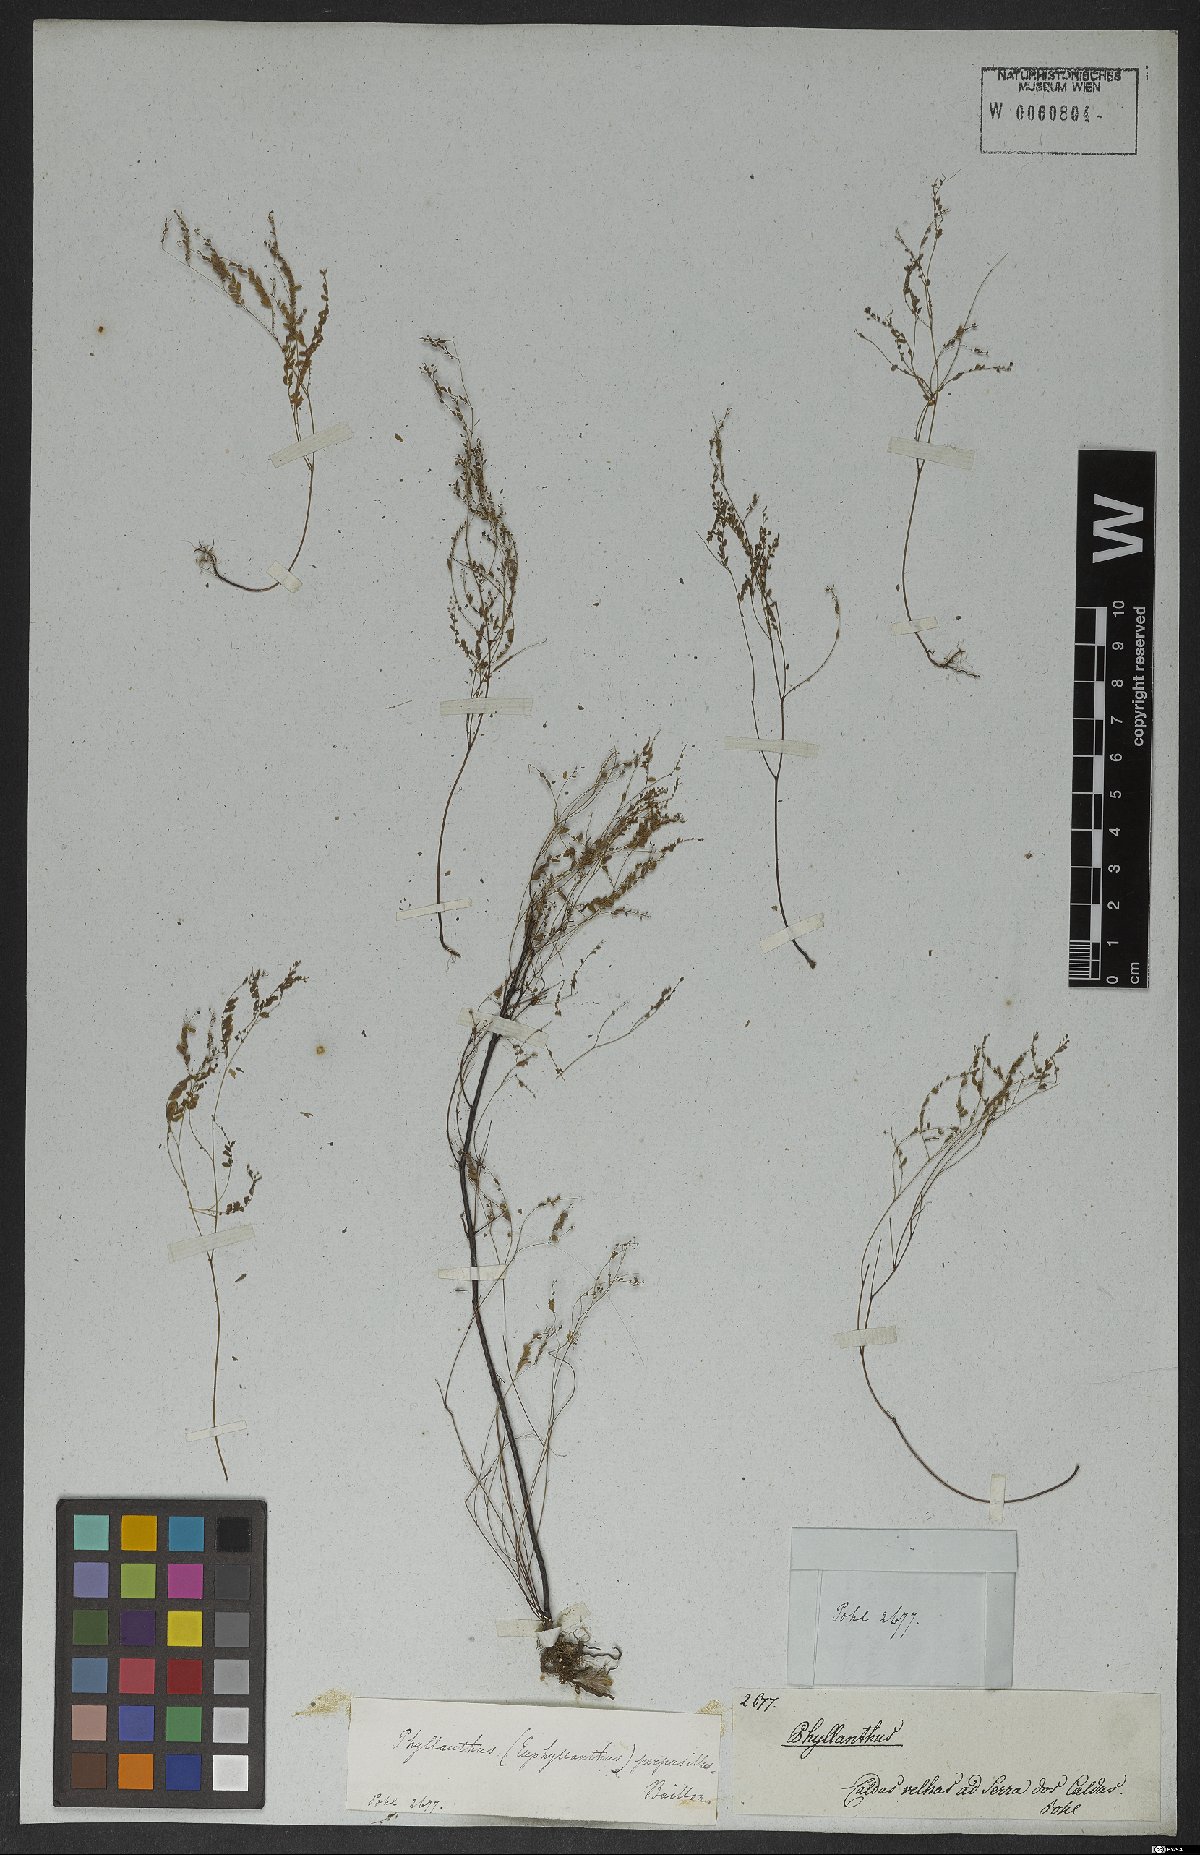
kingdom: Plantae
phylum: Tracheophyta
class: Magnoliopsida
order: Malpighiales
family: Phyllanthaceae
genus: Phyllanthus
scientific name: Phyllanthus perpusillus
